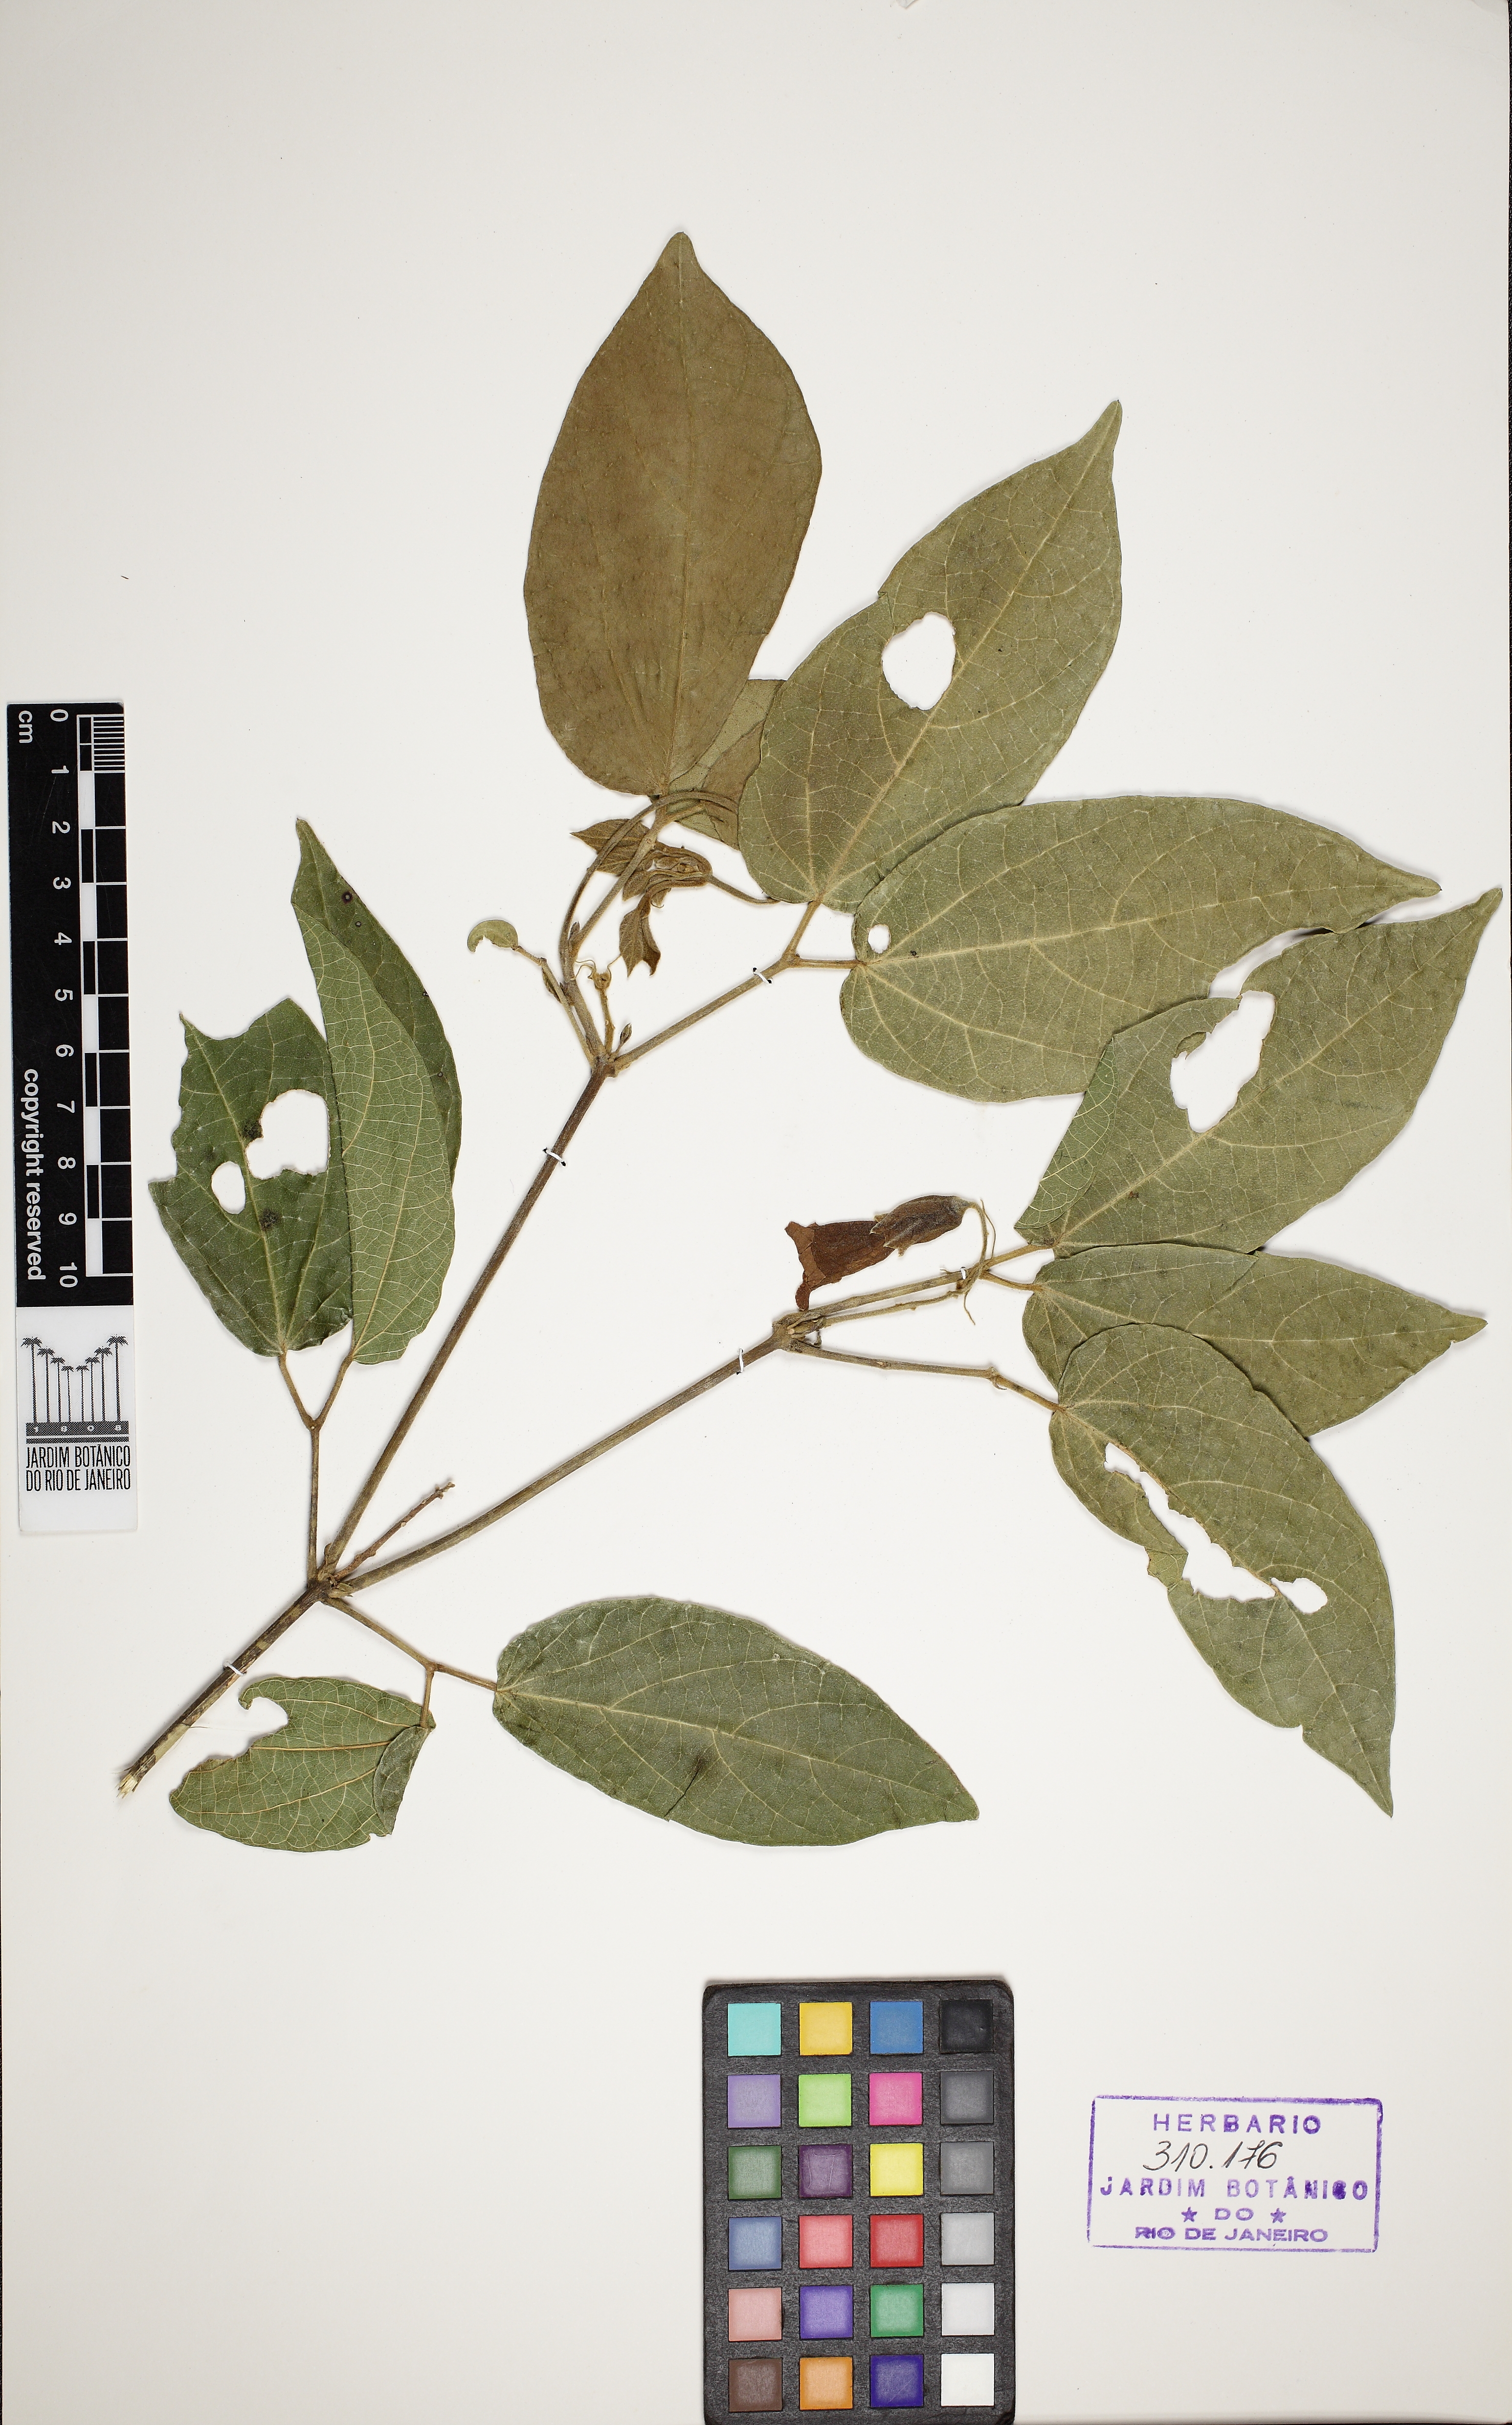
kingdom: Plantae
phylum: Tracheophyta
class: Magnoliopsida
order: Lamiales
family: Bignoniaceae
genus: Stizophyllum
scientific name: Stizophyllum perforatum
